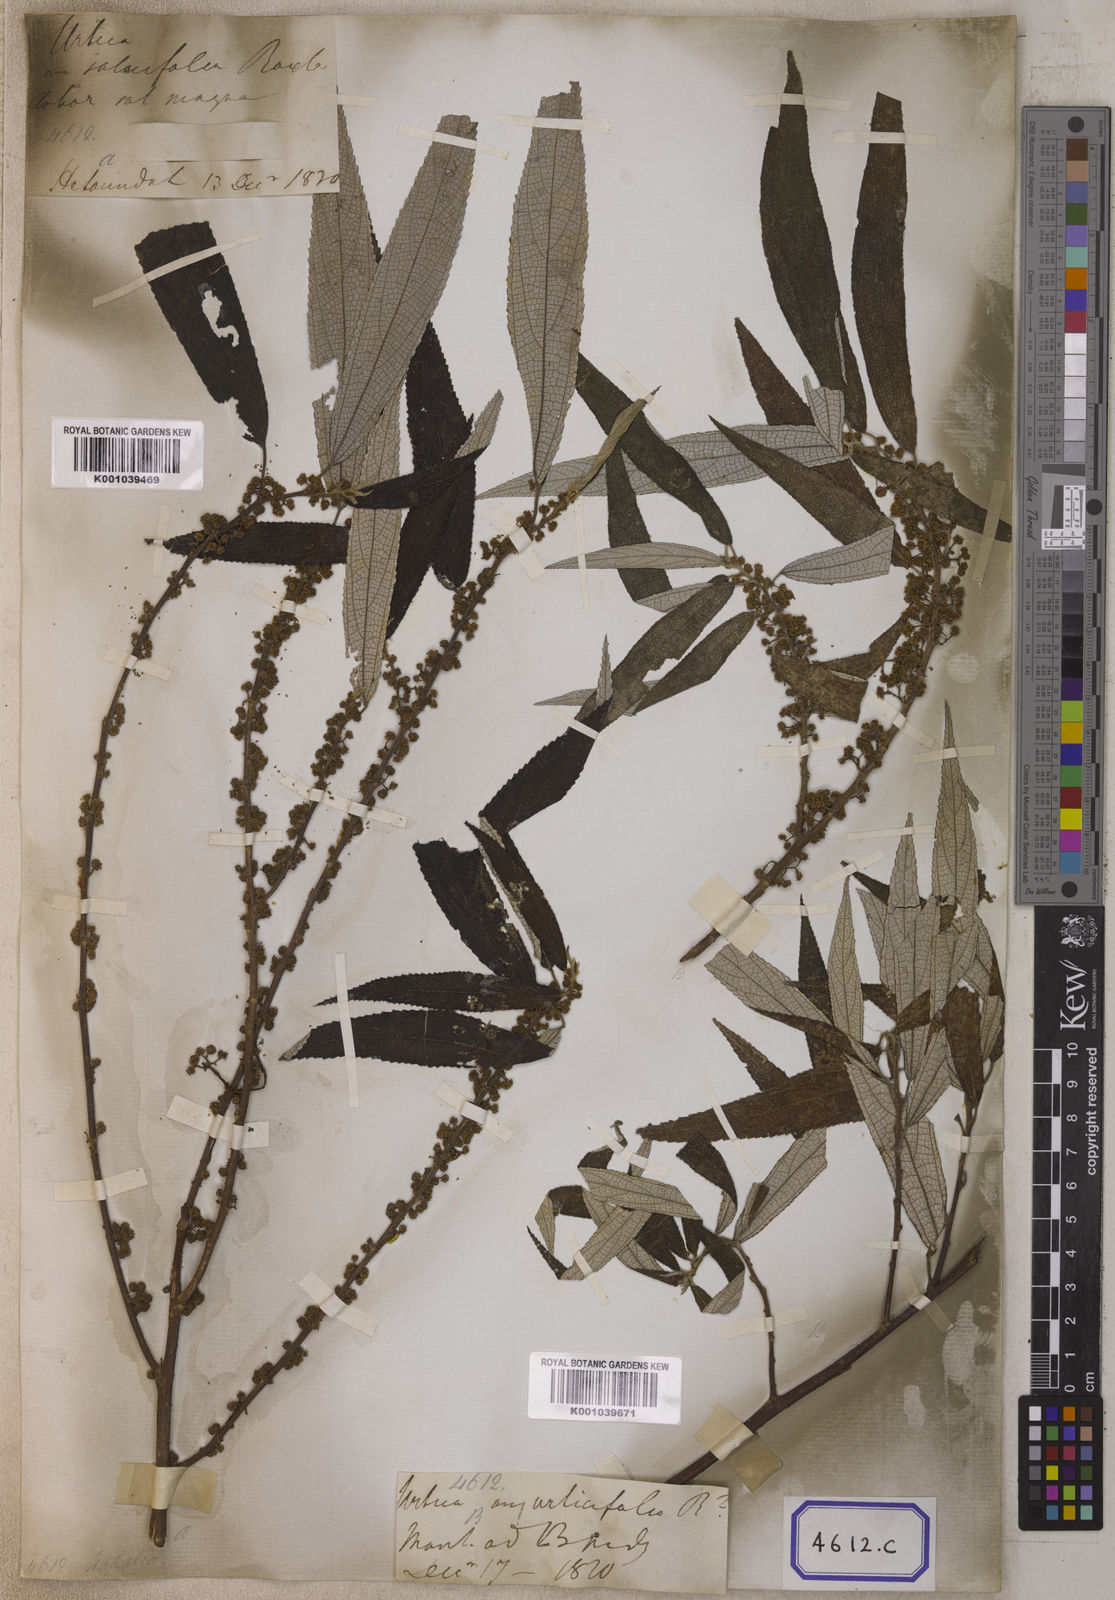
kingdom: Plantae
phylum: Tracheophyta
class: Magnoliopsida
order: Rosales
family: Urticaceae
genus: Debregeasia
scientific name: Debregeasia longifolia
